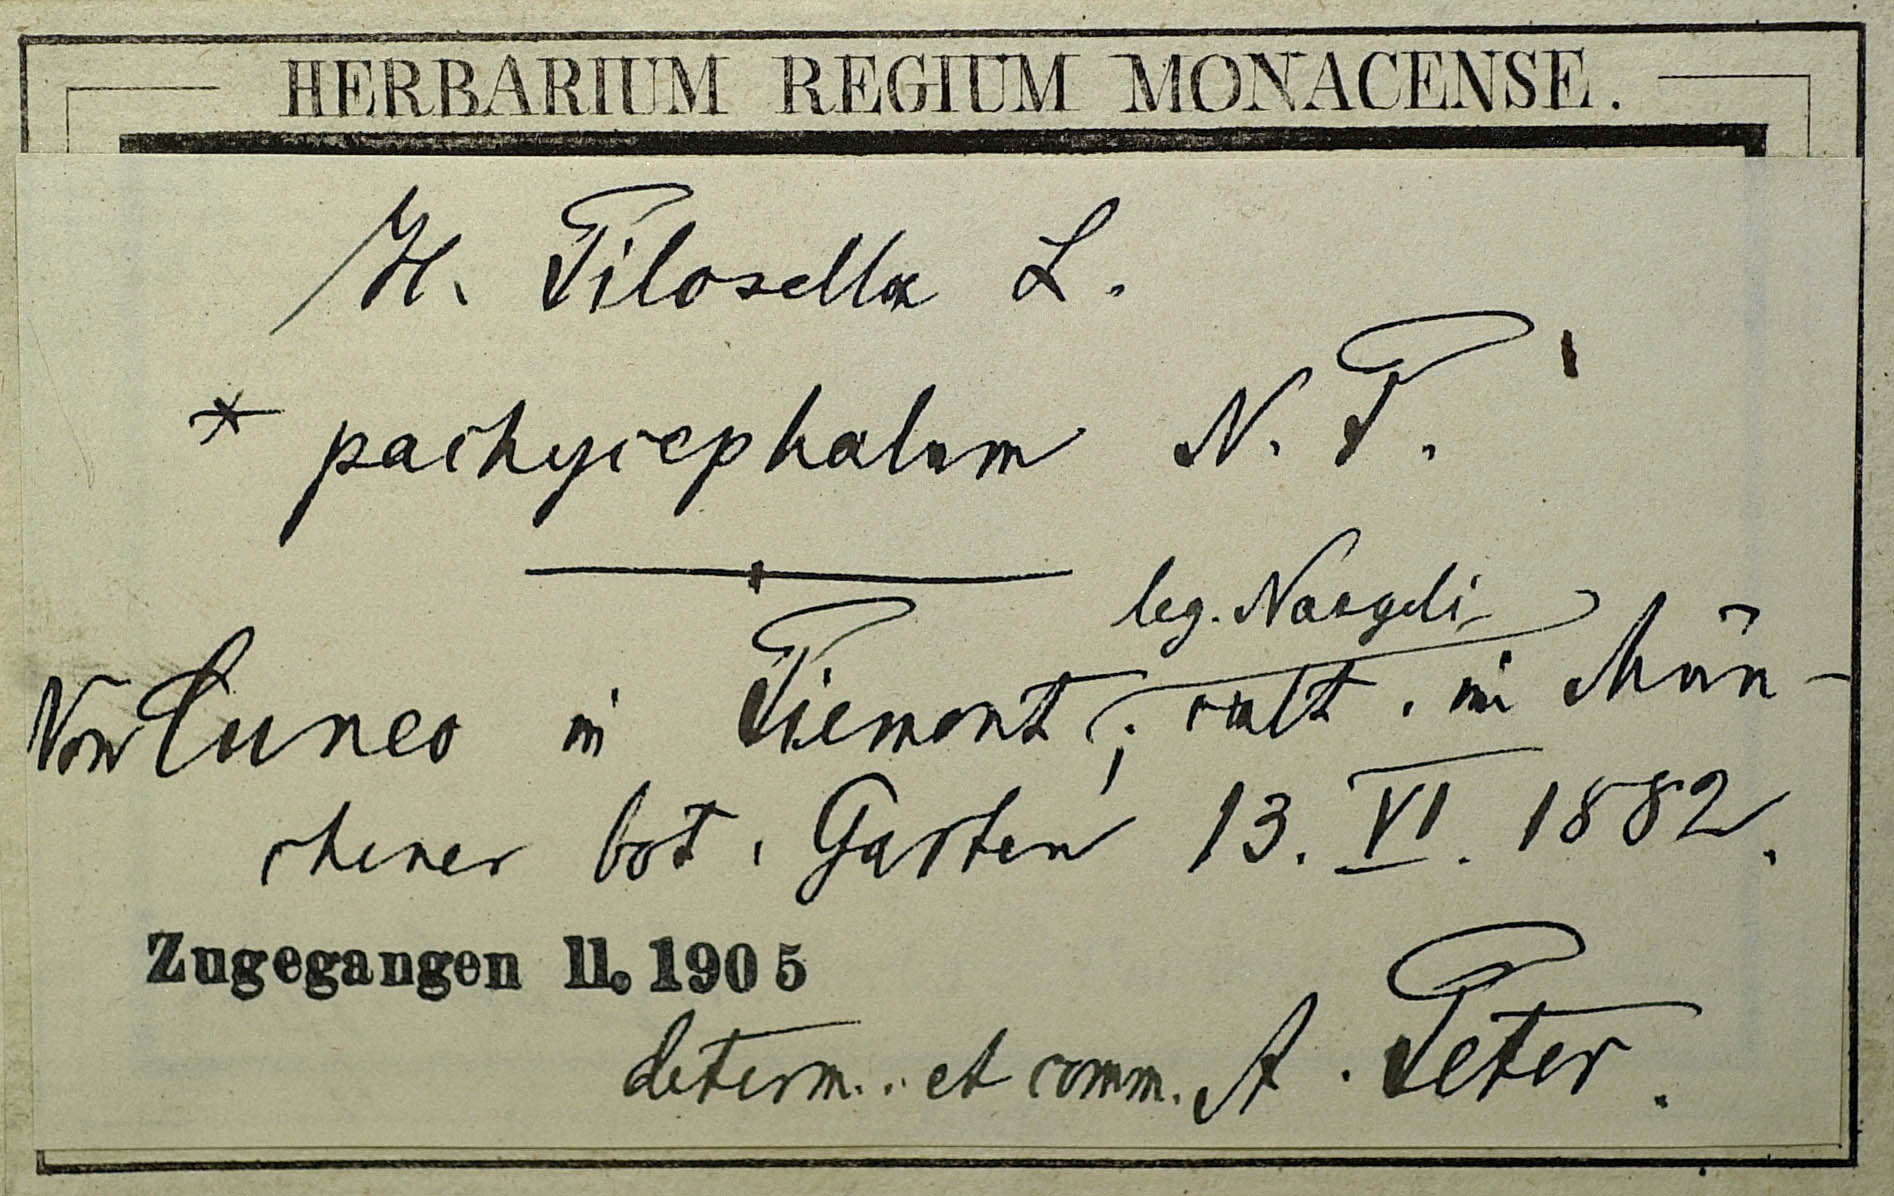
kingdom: Plantae
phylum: Tracheophyta
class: Magnoliopsida
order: Asterales
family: Asteraceae
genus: Pilosella
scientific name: Pilosella officinarum
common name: Mouse-ear hawkweed
